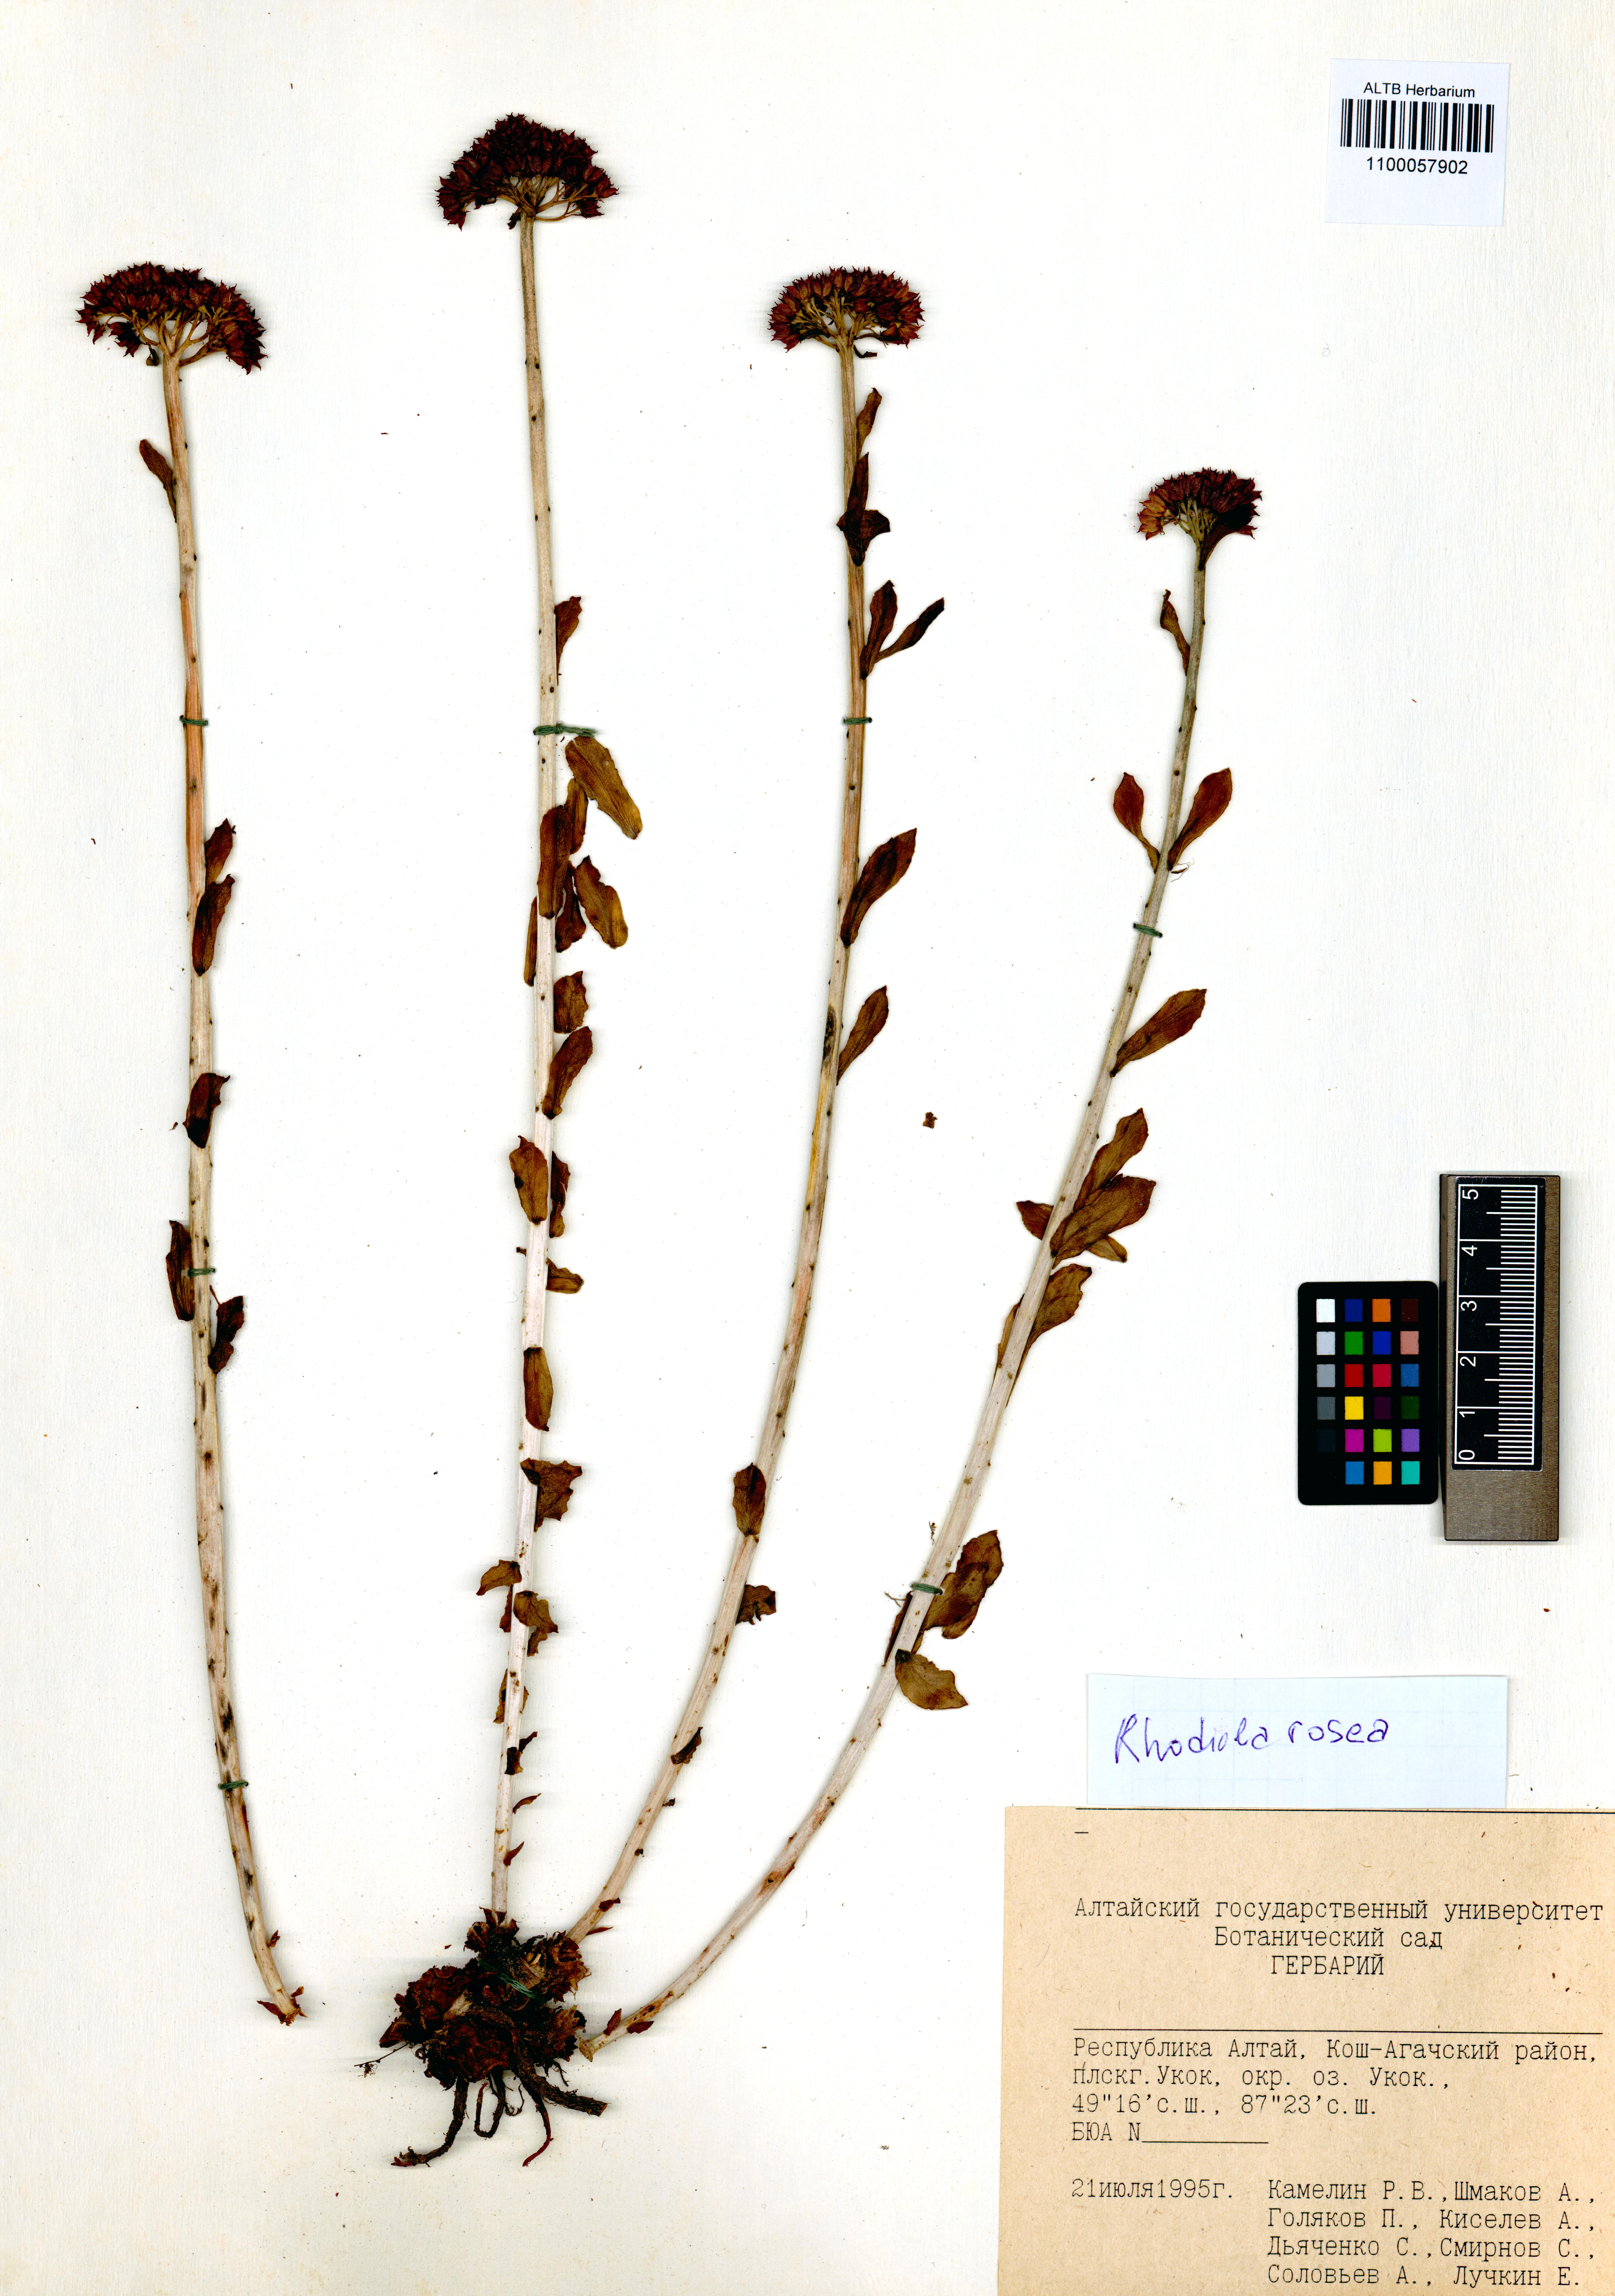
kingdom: Plantae
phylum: Tracheophyta
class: Magnoliopsida
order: Saxifragales
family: Crassulaceae
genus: Rhodiola
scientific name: Rhodiola rosea
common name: Roseroot
